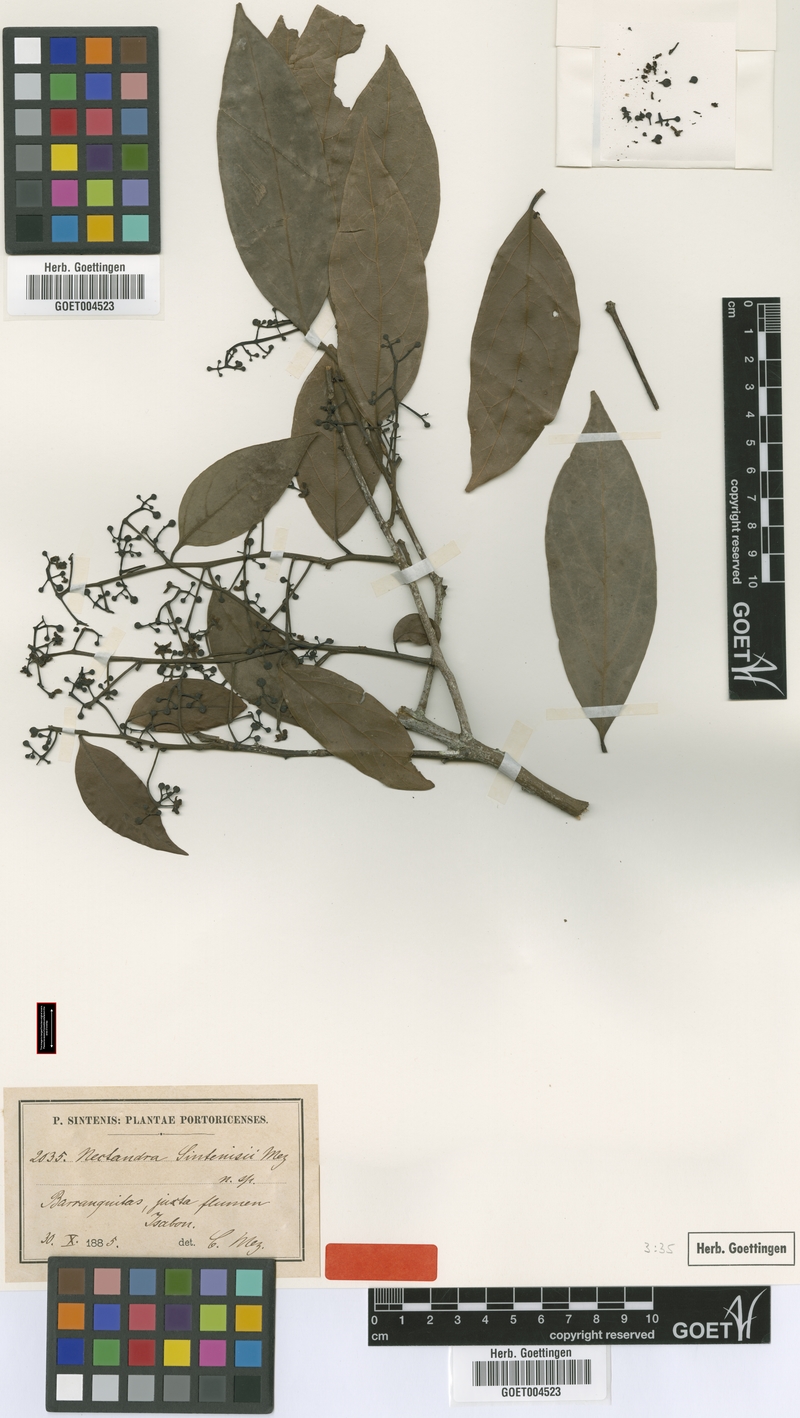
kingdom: Plantae
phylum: Tracheophyta
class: Magnoliopsida
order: Laurales
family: Lauraceae
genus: Nectandra
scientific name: Nectandra turbacensis
